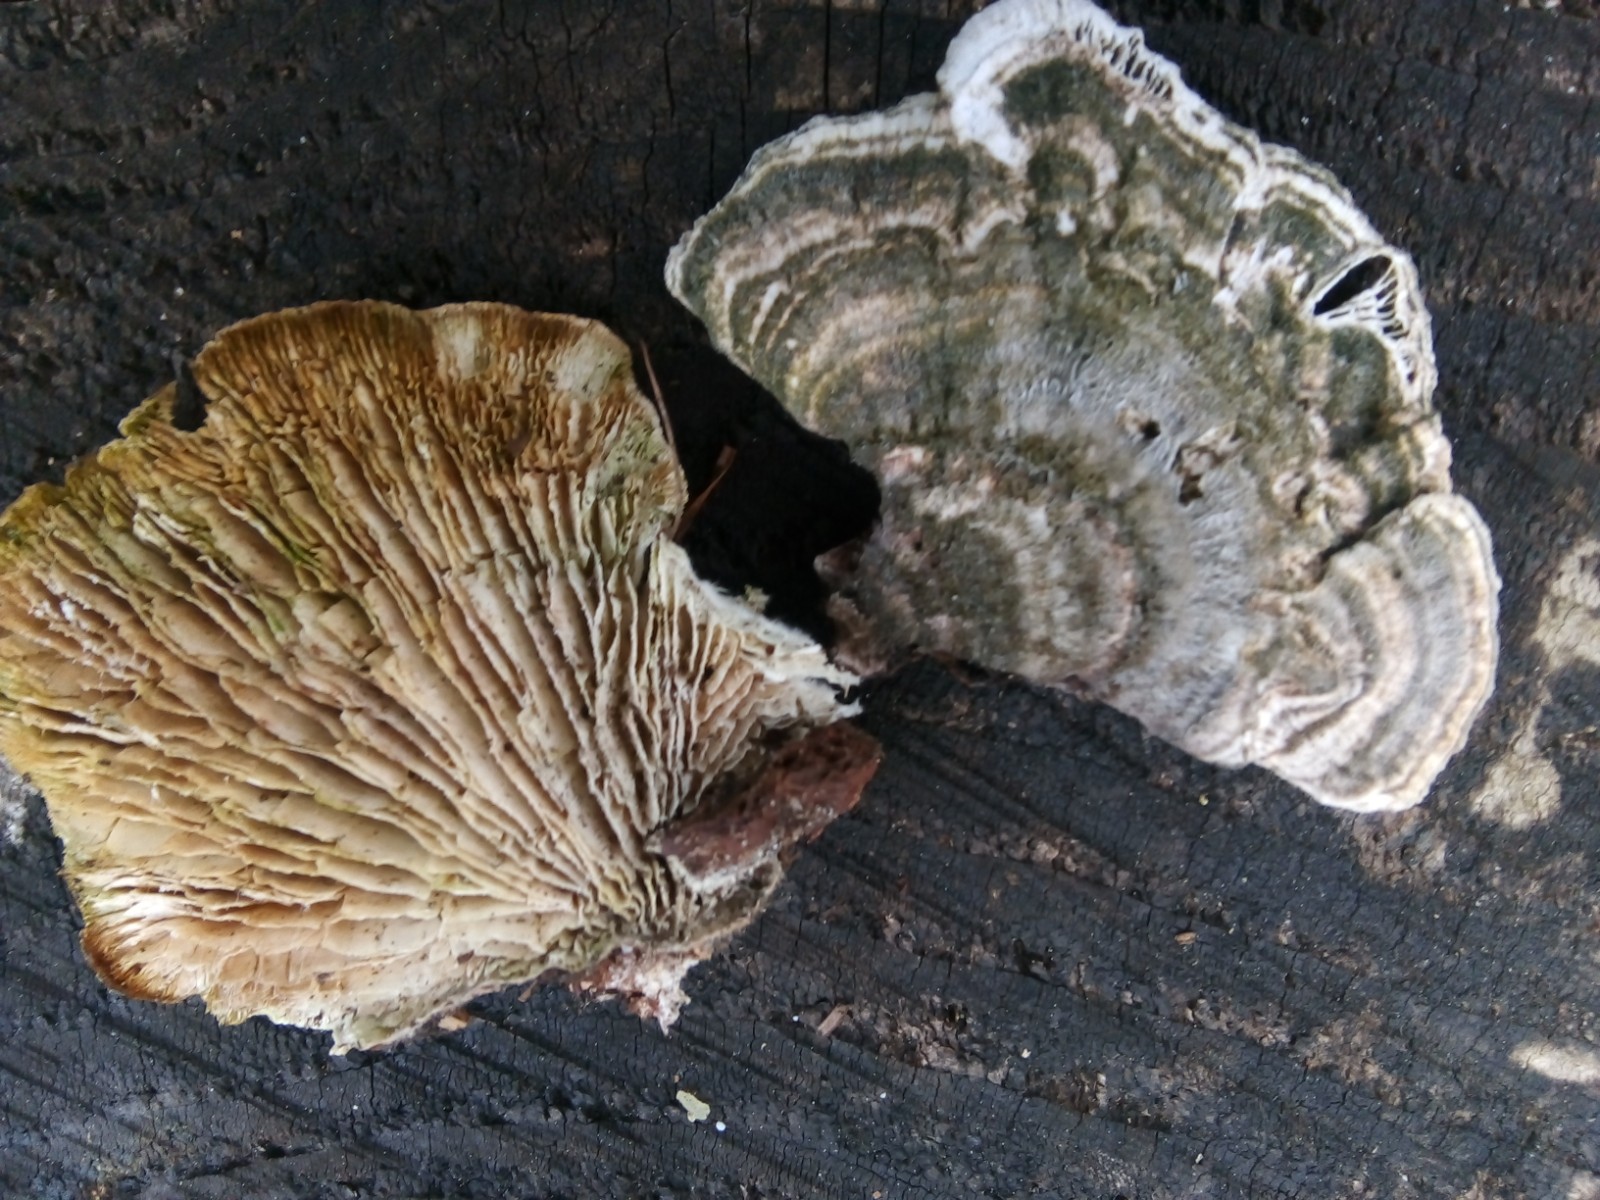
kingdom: Fungi
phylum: Basidiomycota
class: Agaricomycetes
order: Polyporales
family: Polyporaceae
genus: Lenzites
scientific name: Lenzites betulinus
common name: birke-læderporesvamp
